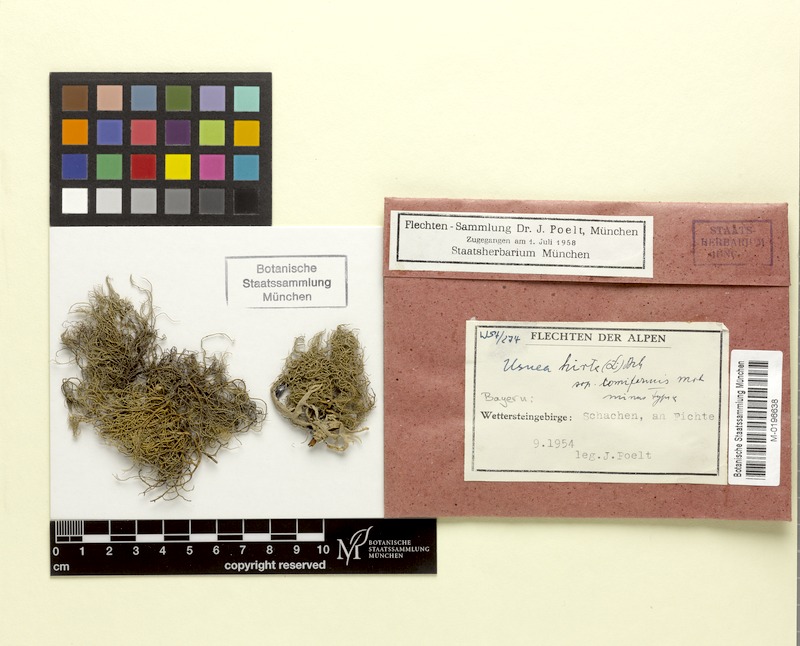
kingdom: Fungi
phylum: Ascomycota
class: Lecanoromycetes
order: Lecanorales
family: Parmeliaceae
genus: Usnea
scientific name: Usnea hirta
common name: Bristly beard lichen
